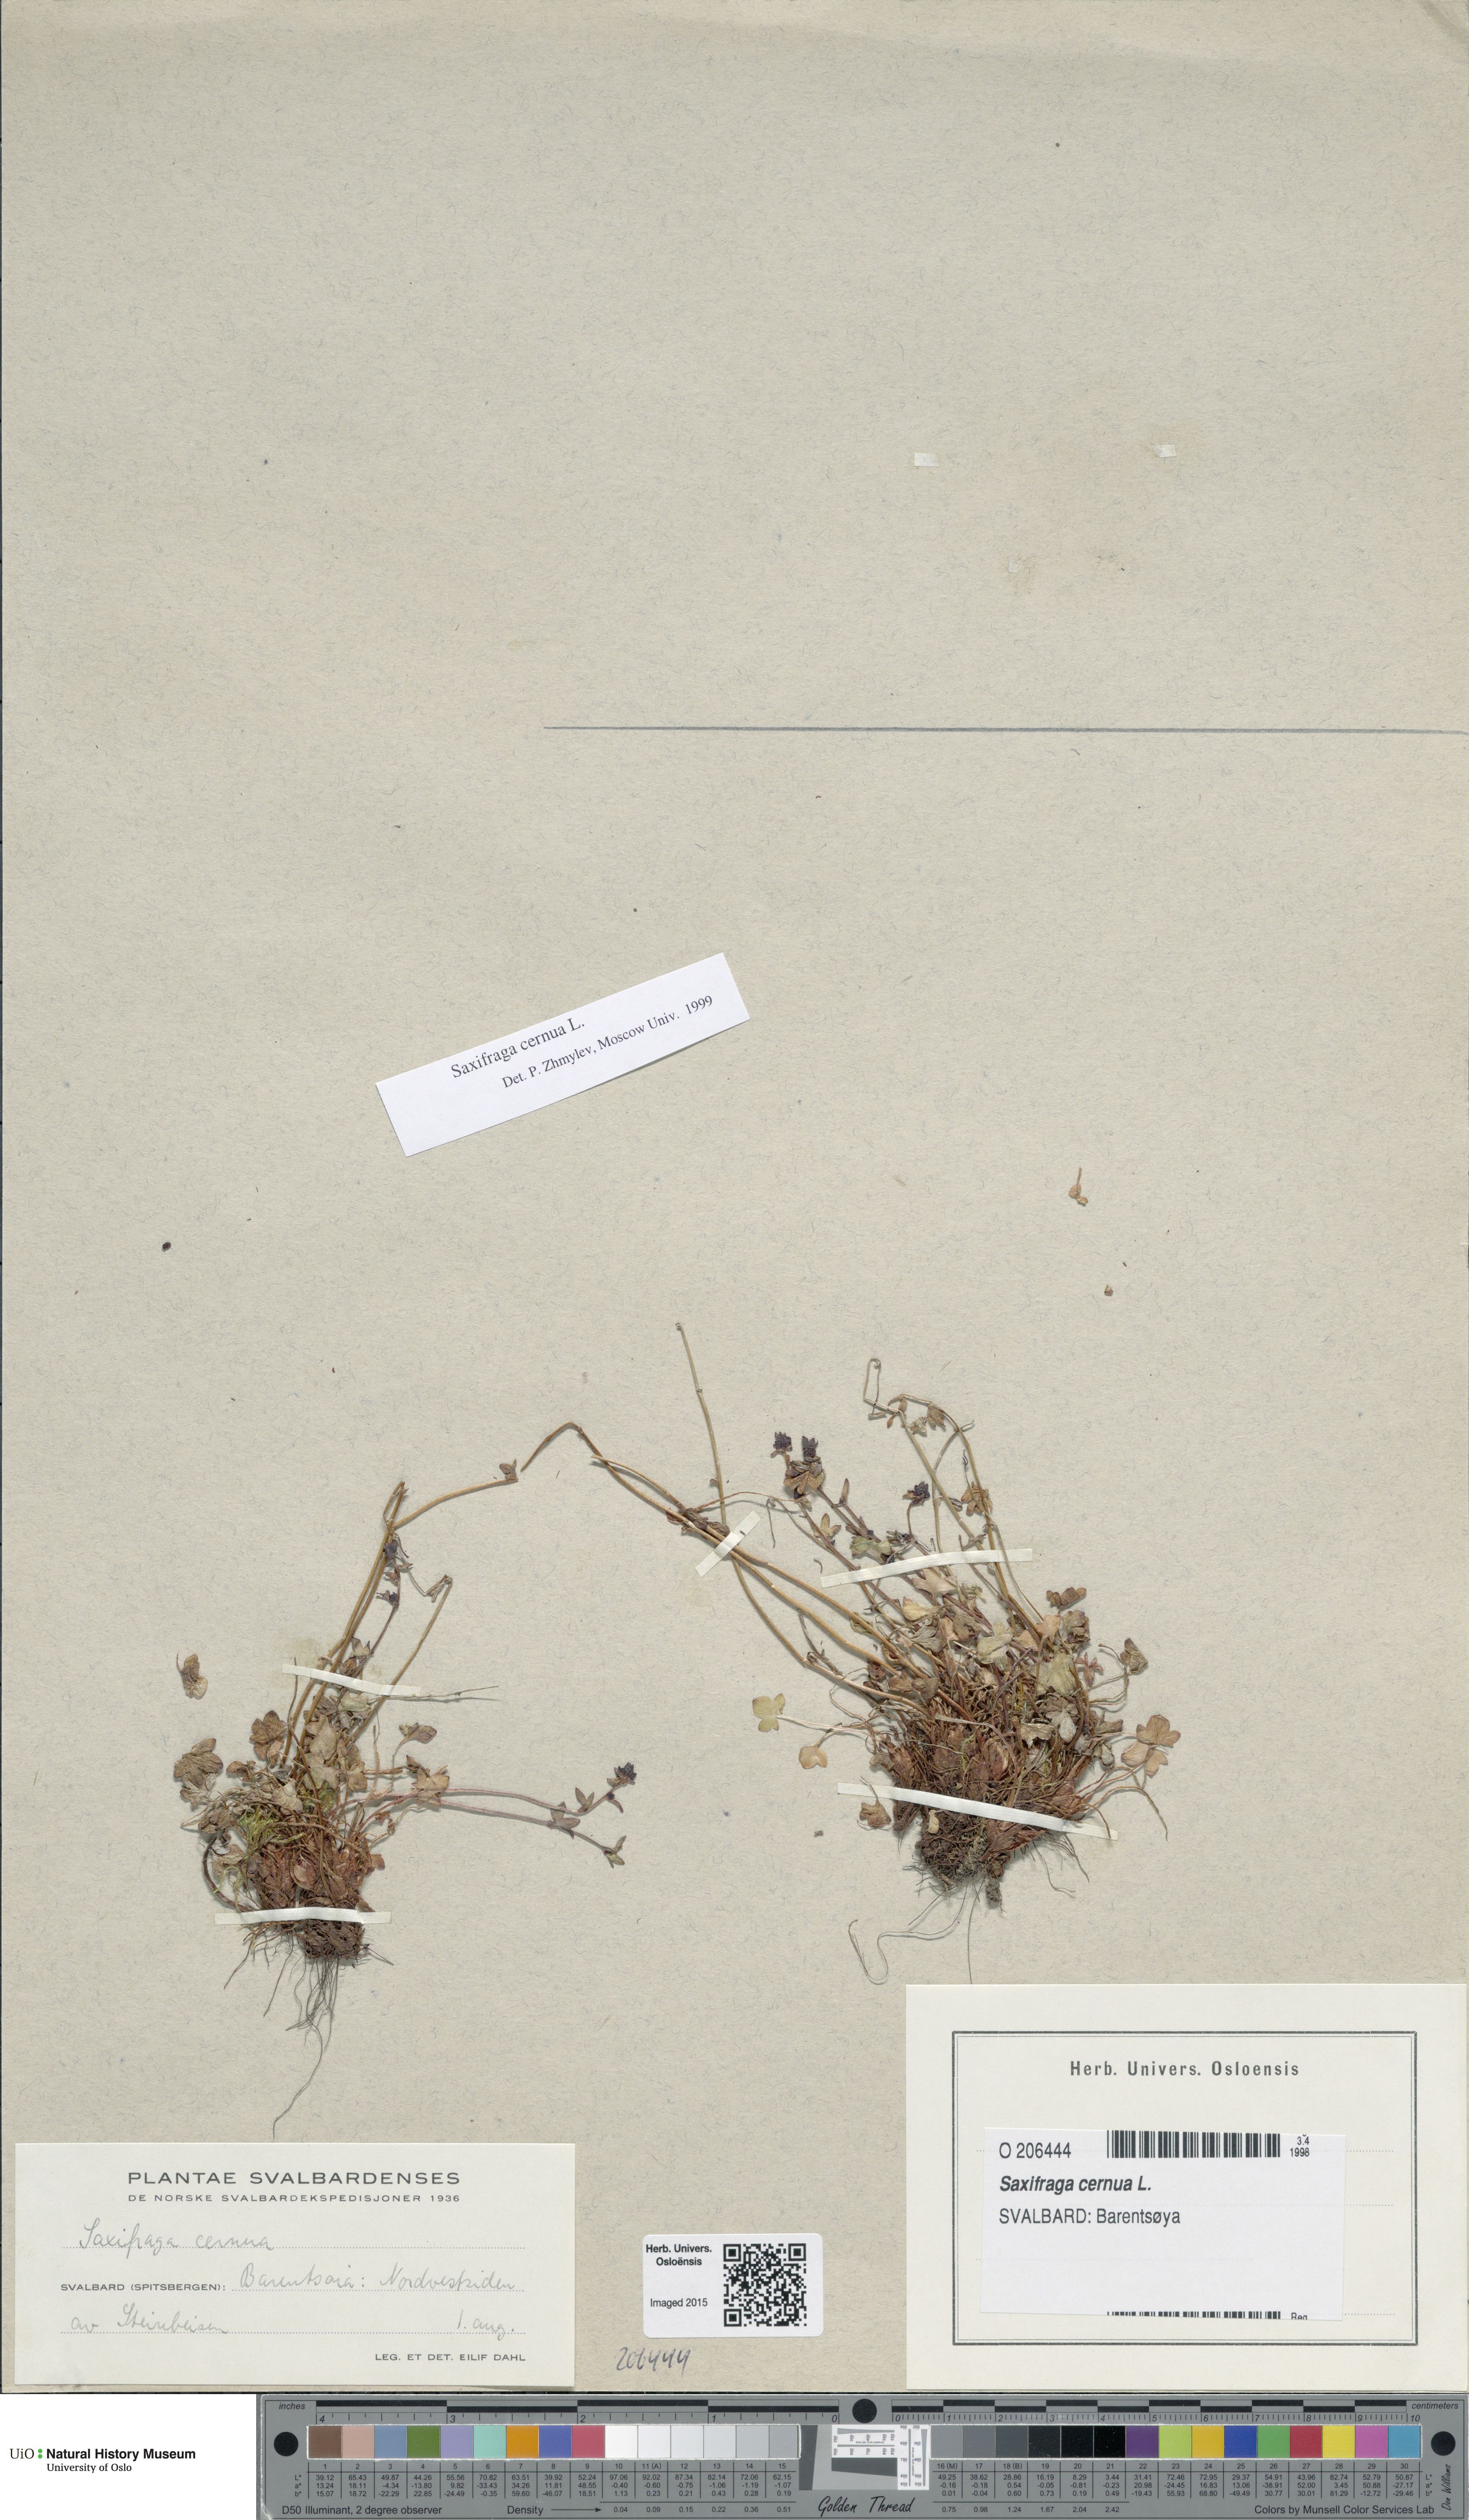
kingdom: Plantae
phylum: Tracheophyta
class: Magnoliopsida
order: Saxifragales
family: Saxifragaceae
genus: Saxifraga
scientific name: Saxifraga cernua
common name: Drooping saxifrage
